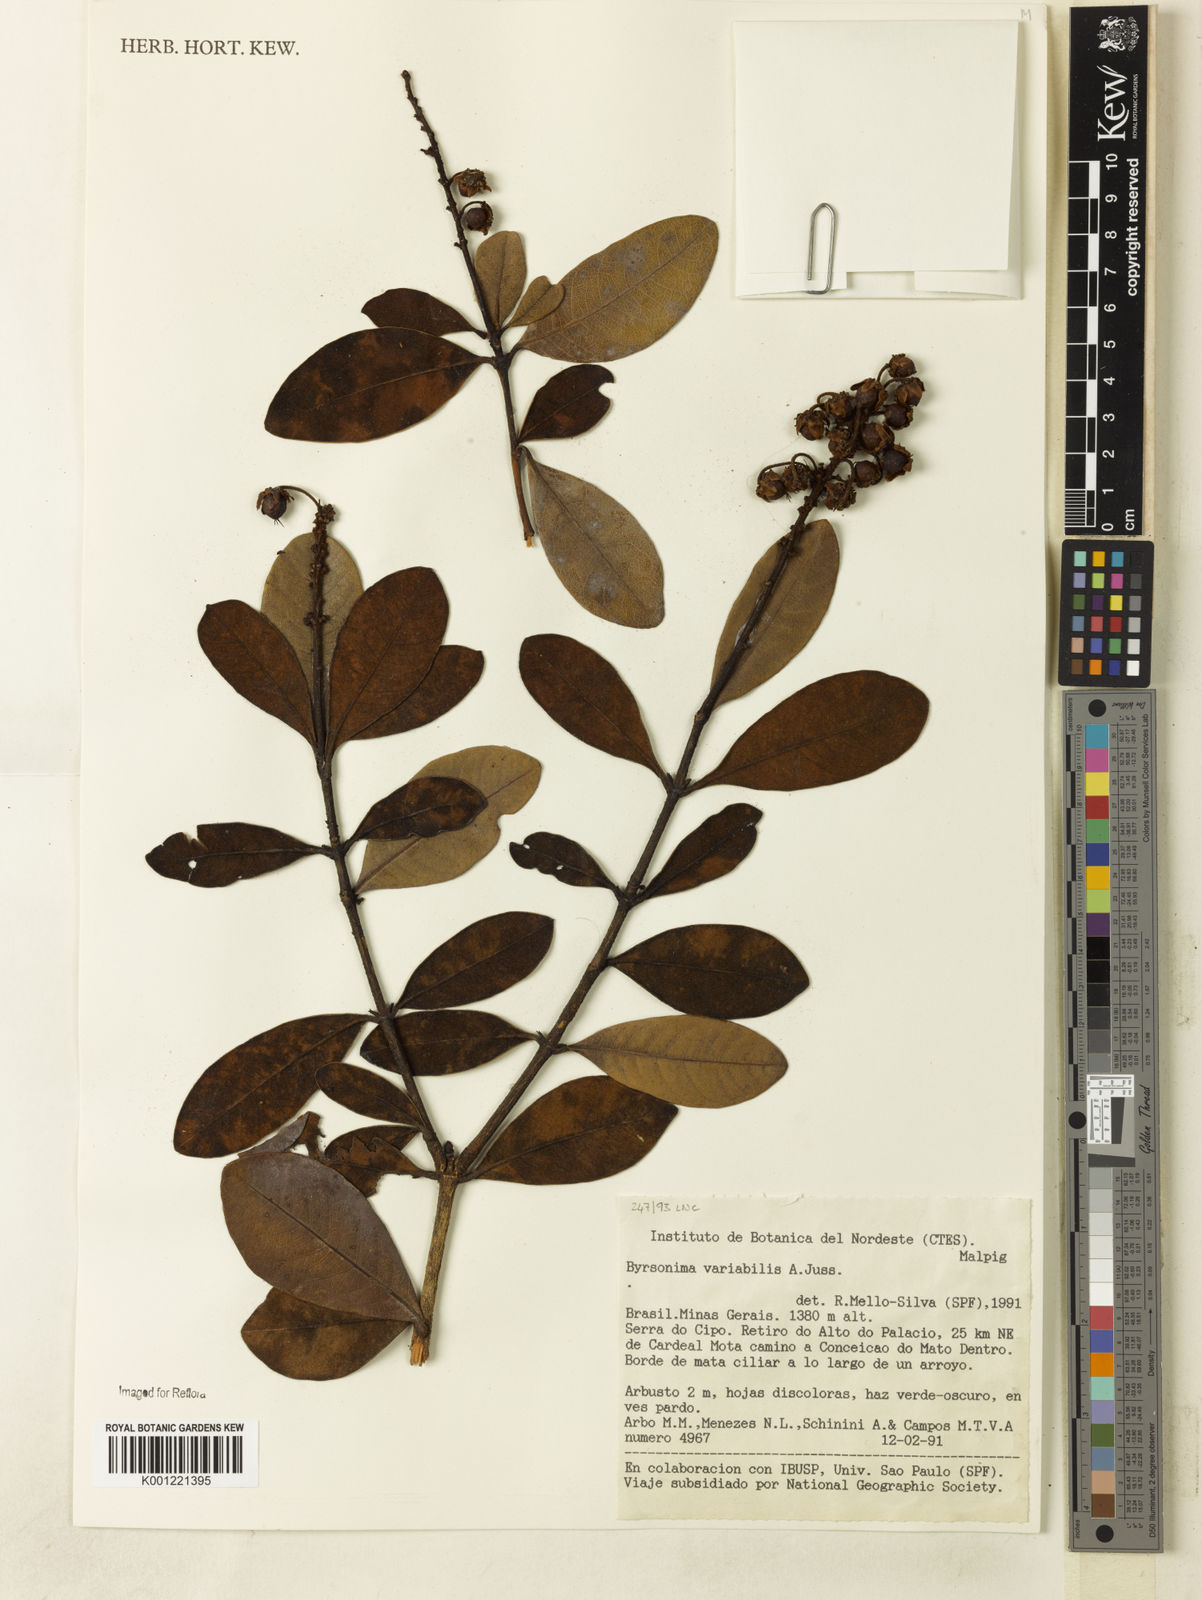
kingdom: Plantae
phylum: Tracheophyta
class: Magnoliopsida
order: Malpighiales
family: Malpighiaceae
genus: Byrsonima
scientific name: Byrsonima variabilis
